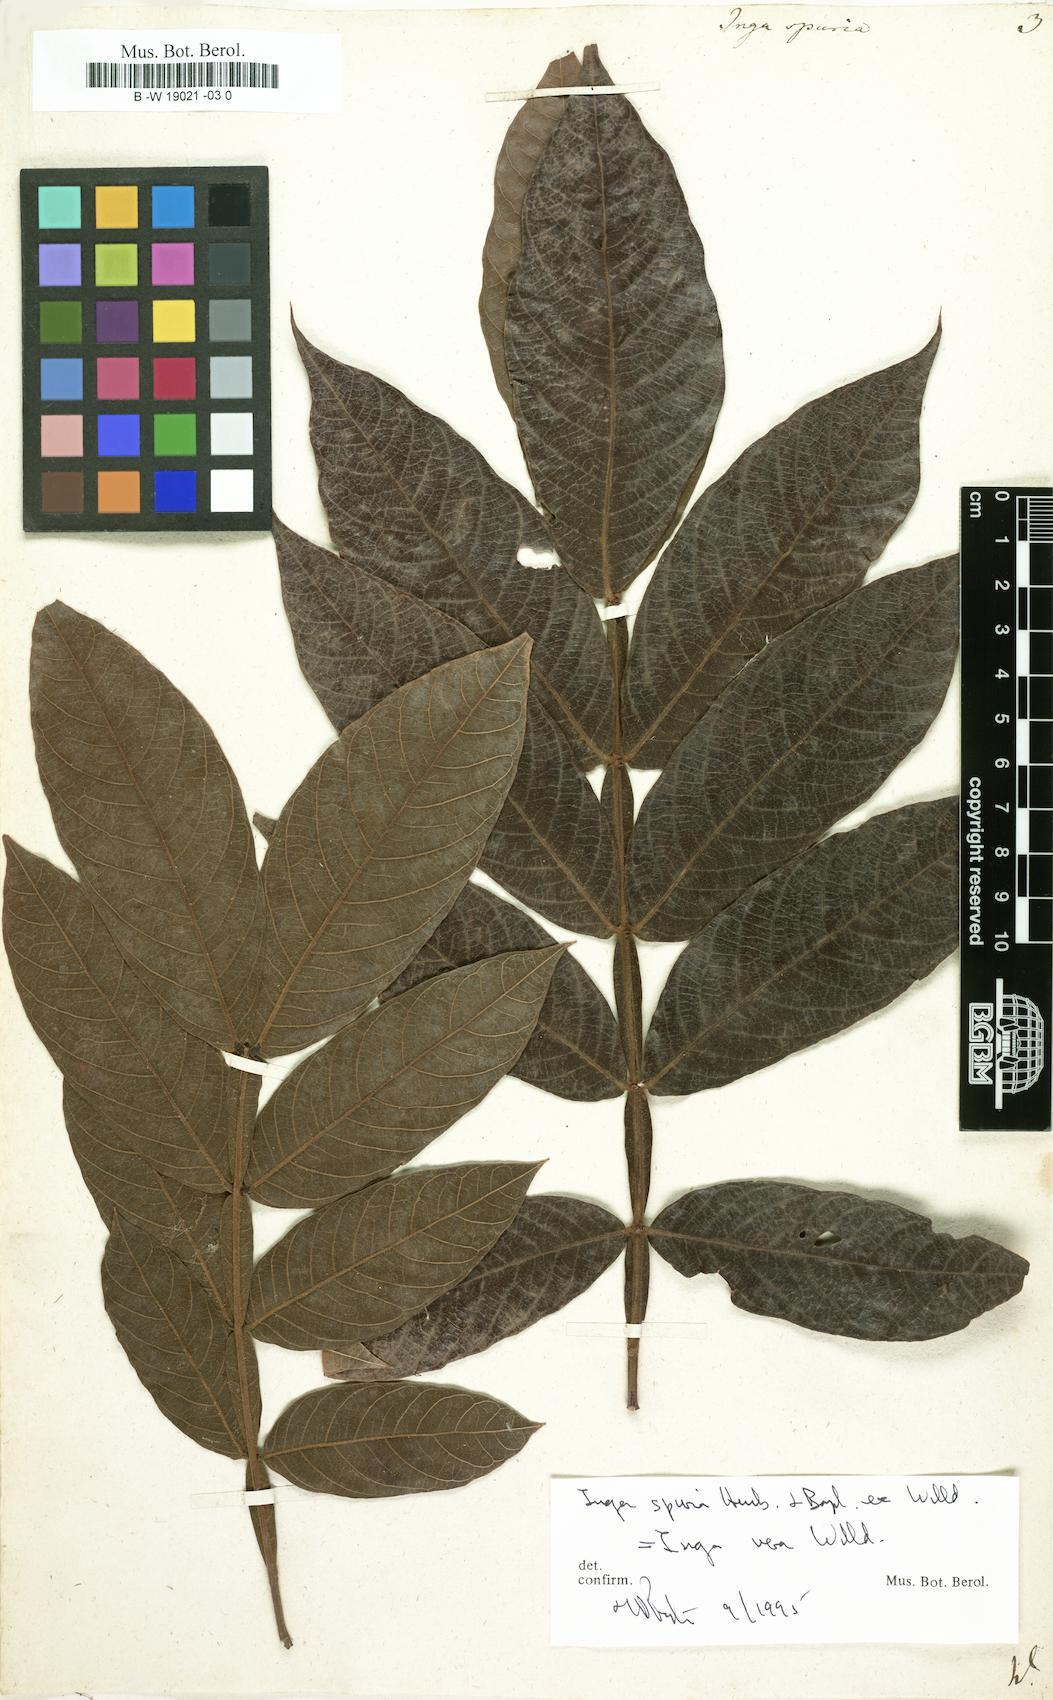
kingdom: Plantae
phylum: Tracheophyta
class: Magnoliopsida
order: Fabales
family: Fabaceae
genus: Inga
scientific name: Inga vera
